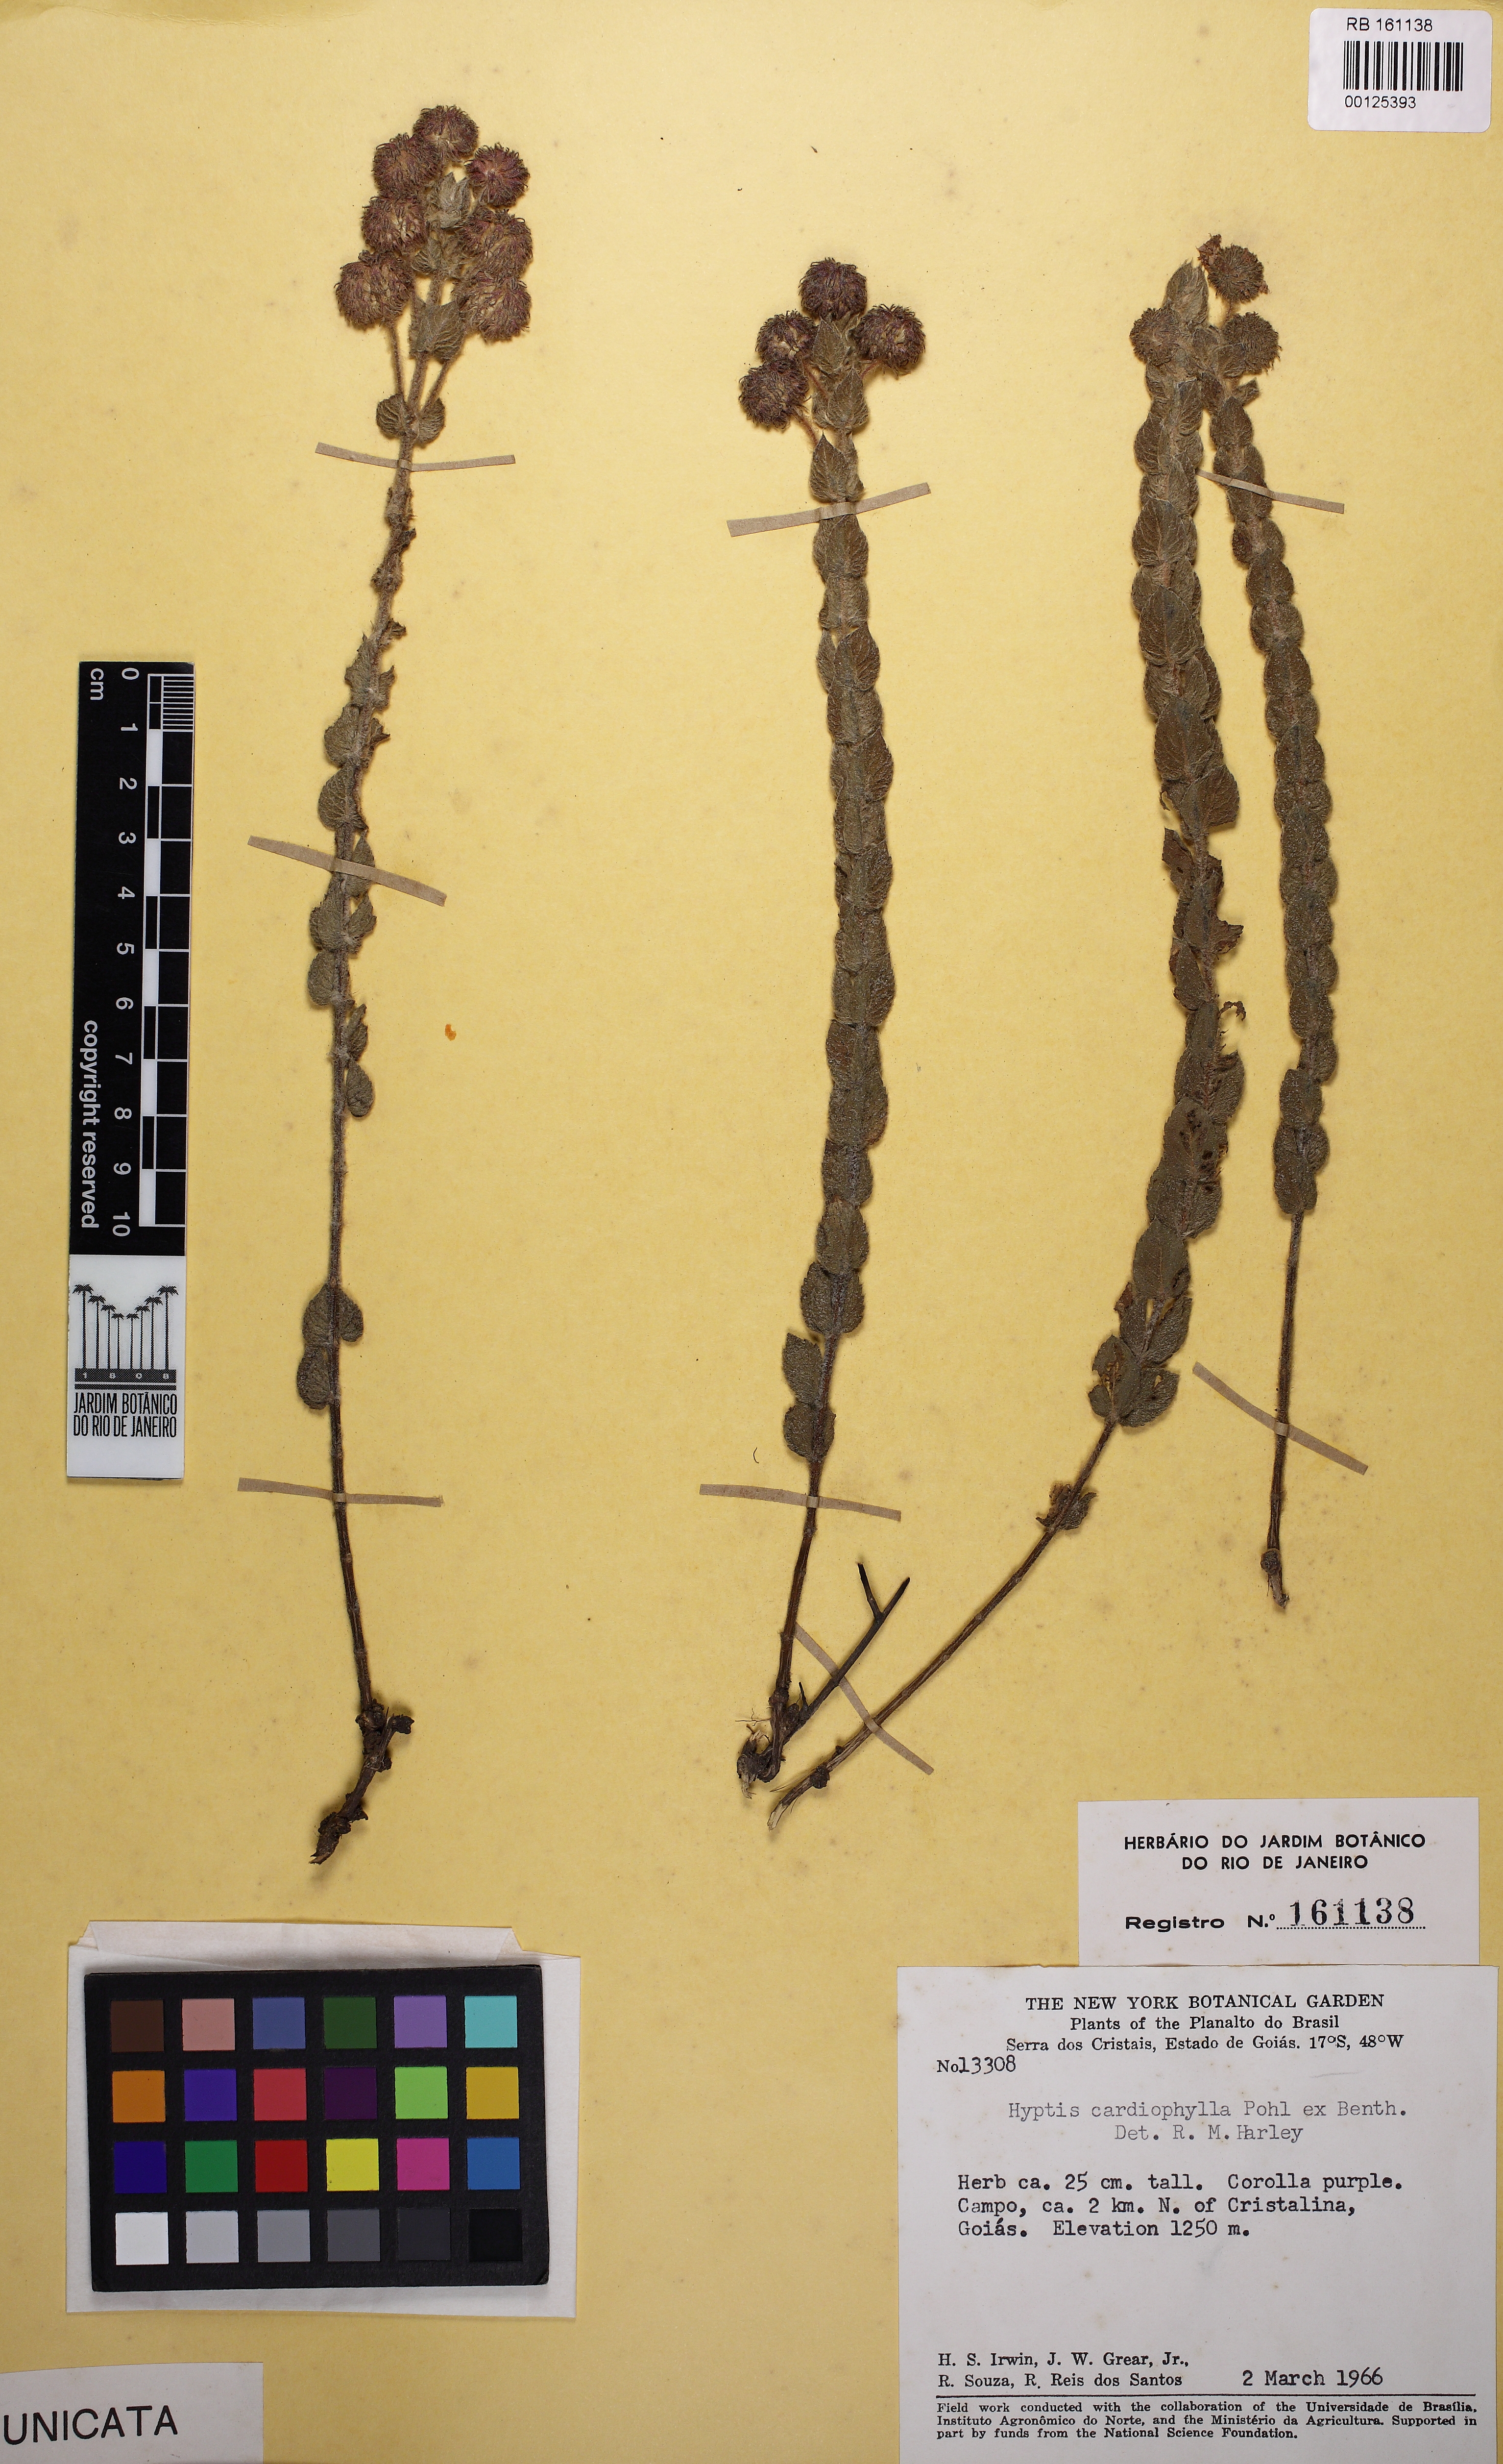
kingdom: Plantae
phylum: Tracheophyta
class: Magnoliopsida
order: Lamiales
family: Lamiaceae
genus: Cyanocephalus
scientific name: Cyanocephalus cardiophyllus
